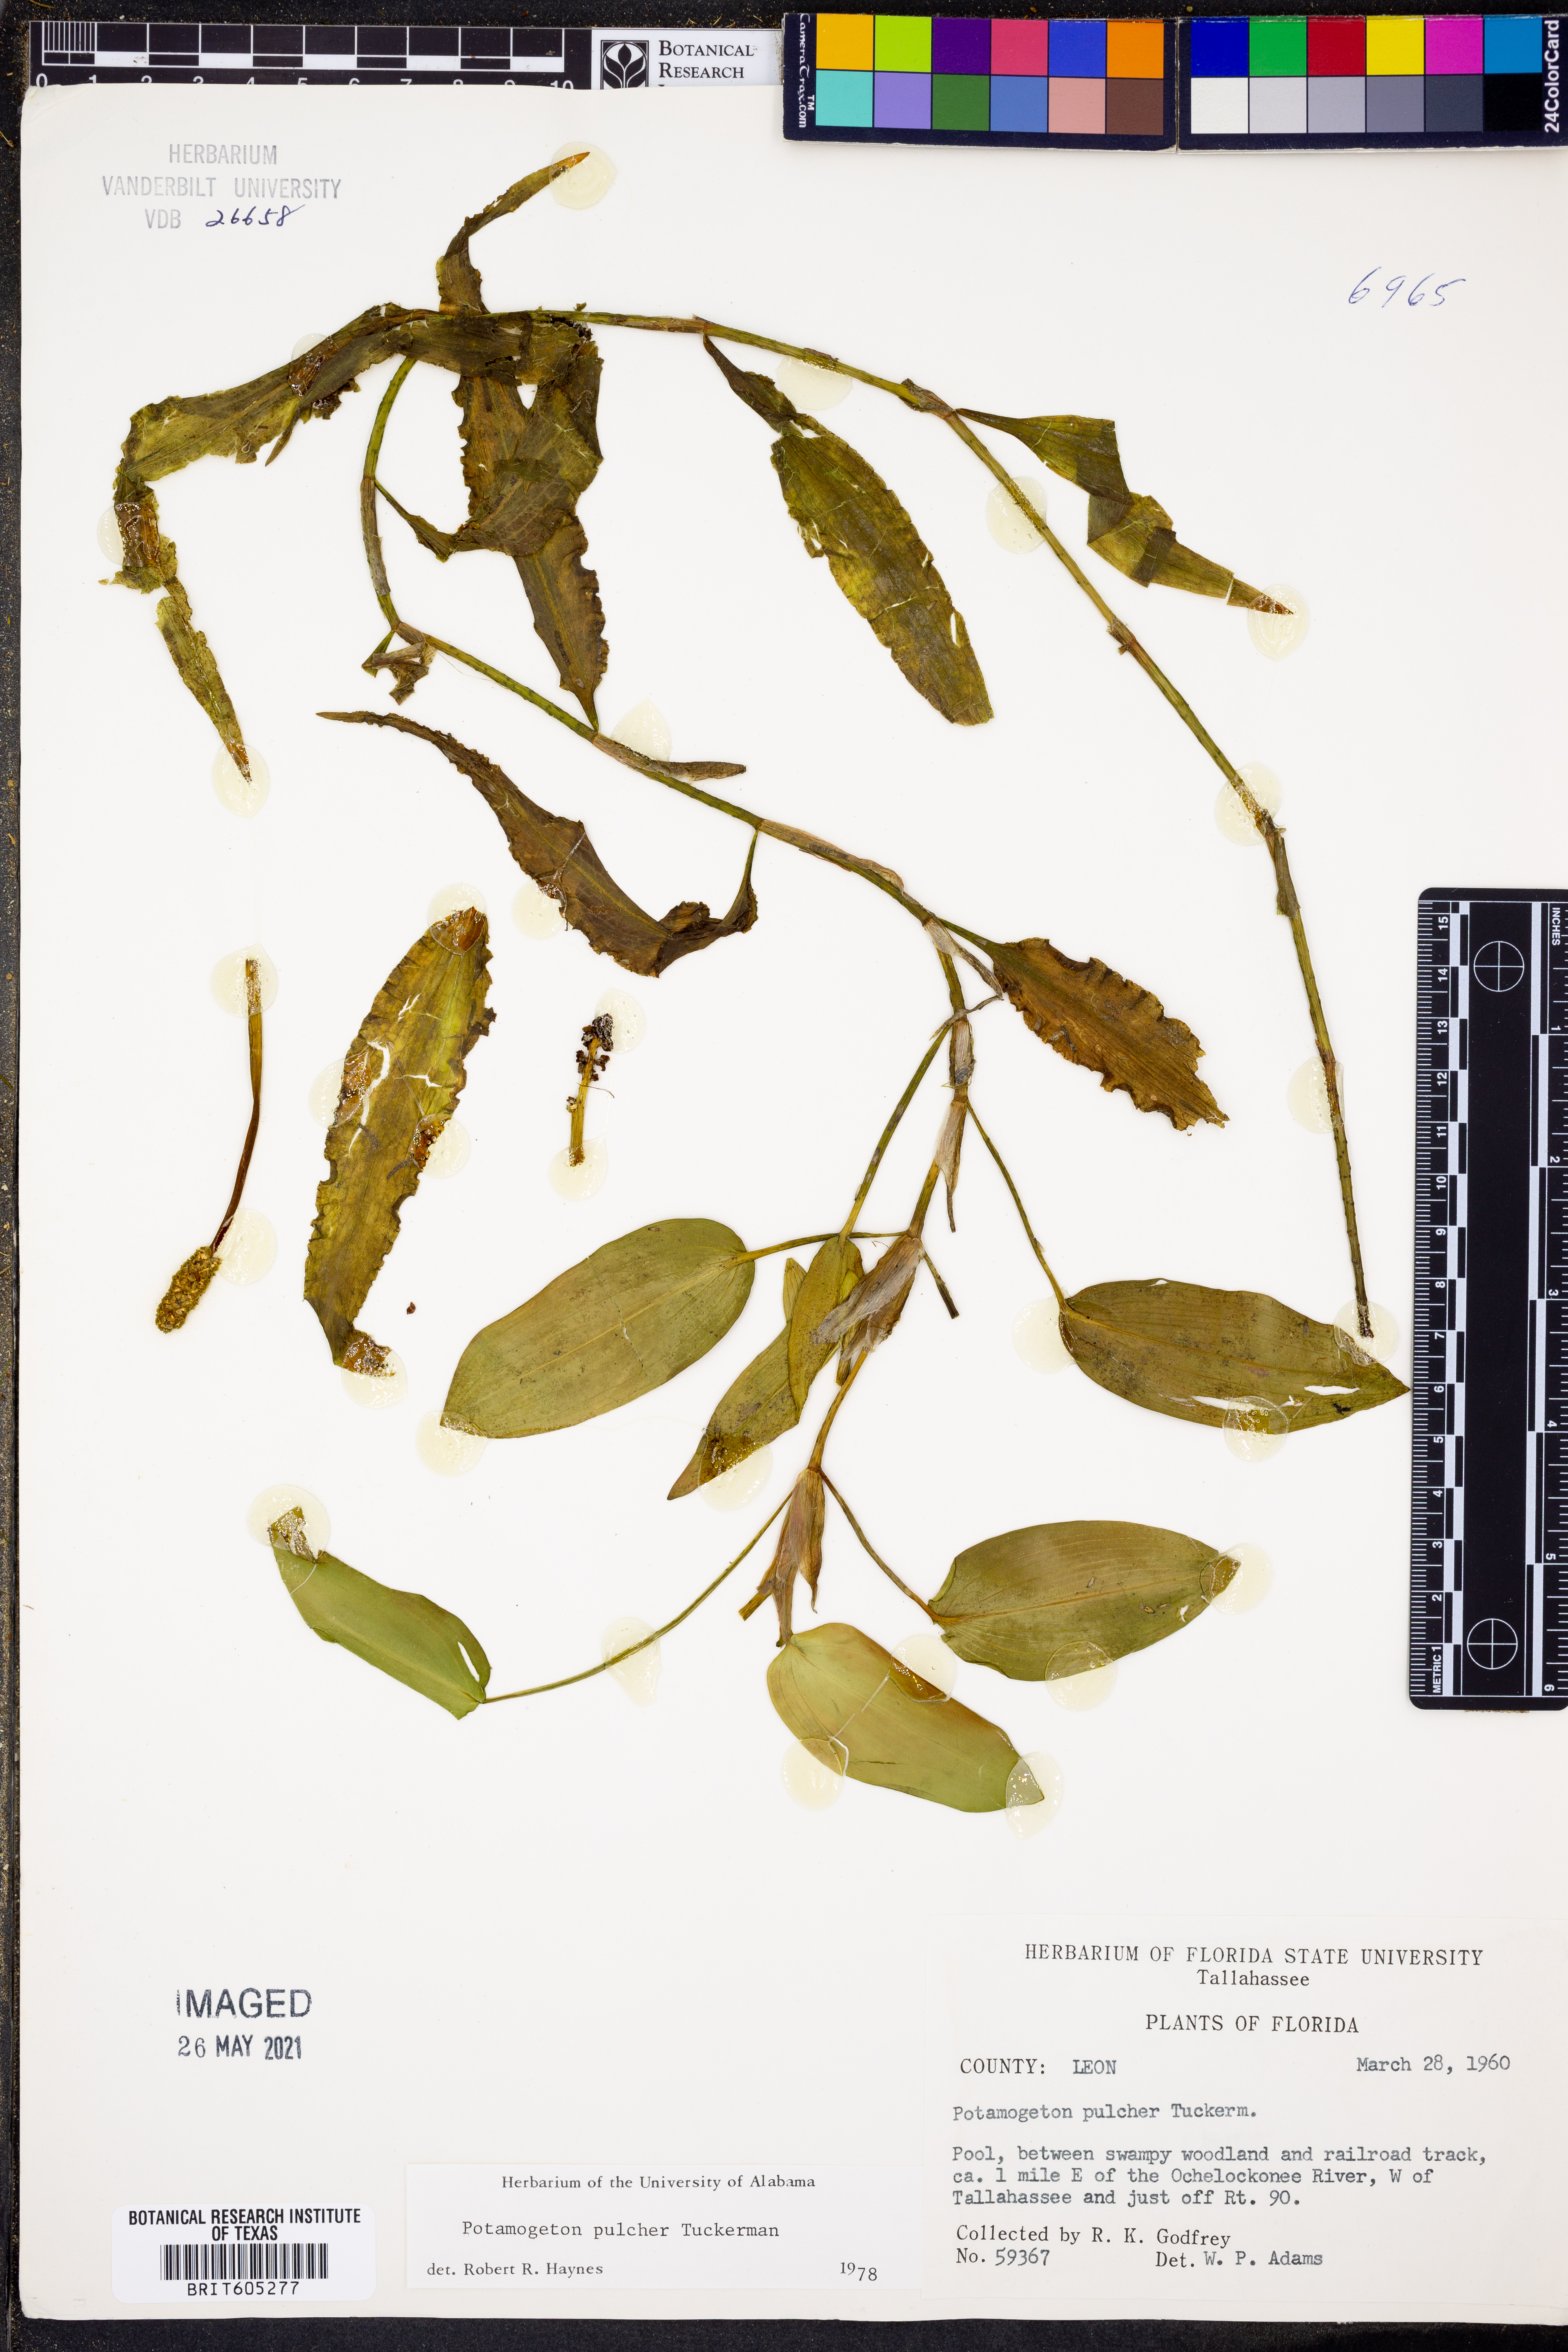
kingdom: Plantae
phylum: Tracheophyta
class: Liliopsida
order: Alismatales
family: Potamogetonaceae
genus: Potamogeton
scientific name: Potamogeton pulcher
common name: Heart-leaved pondweed
